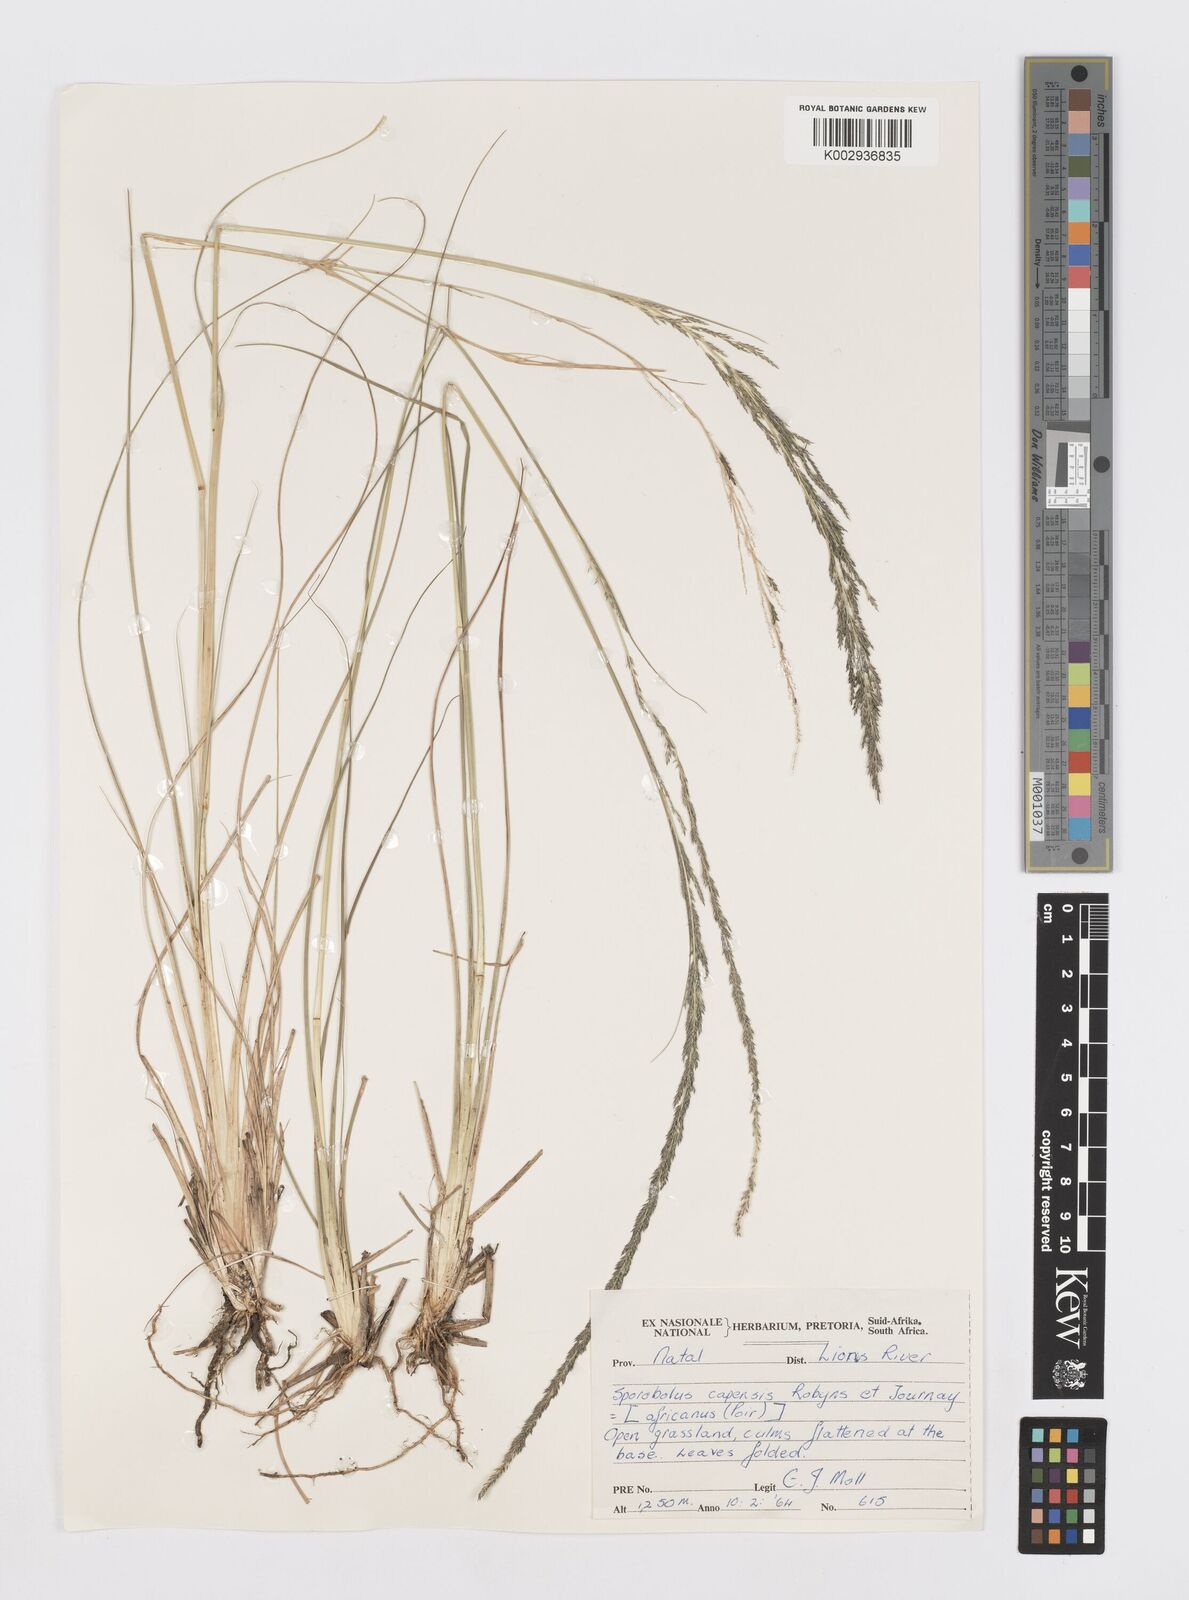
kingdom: Plantae
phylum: Tracheophyta
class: Liliopsida
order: Poales
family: Poaceae
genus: Sporobolus
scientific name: Sporobolus africanus
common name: African dropseed
